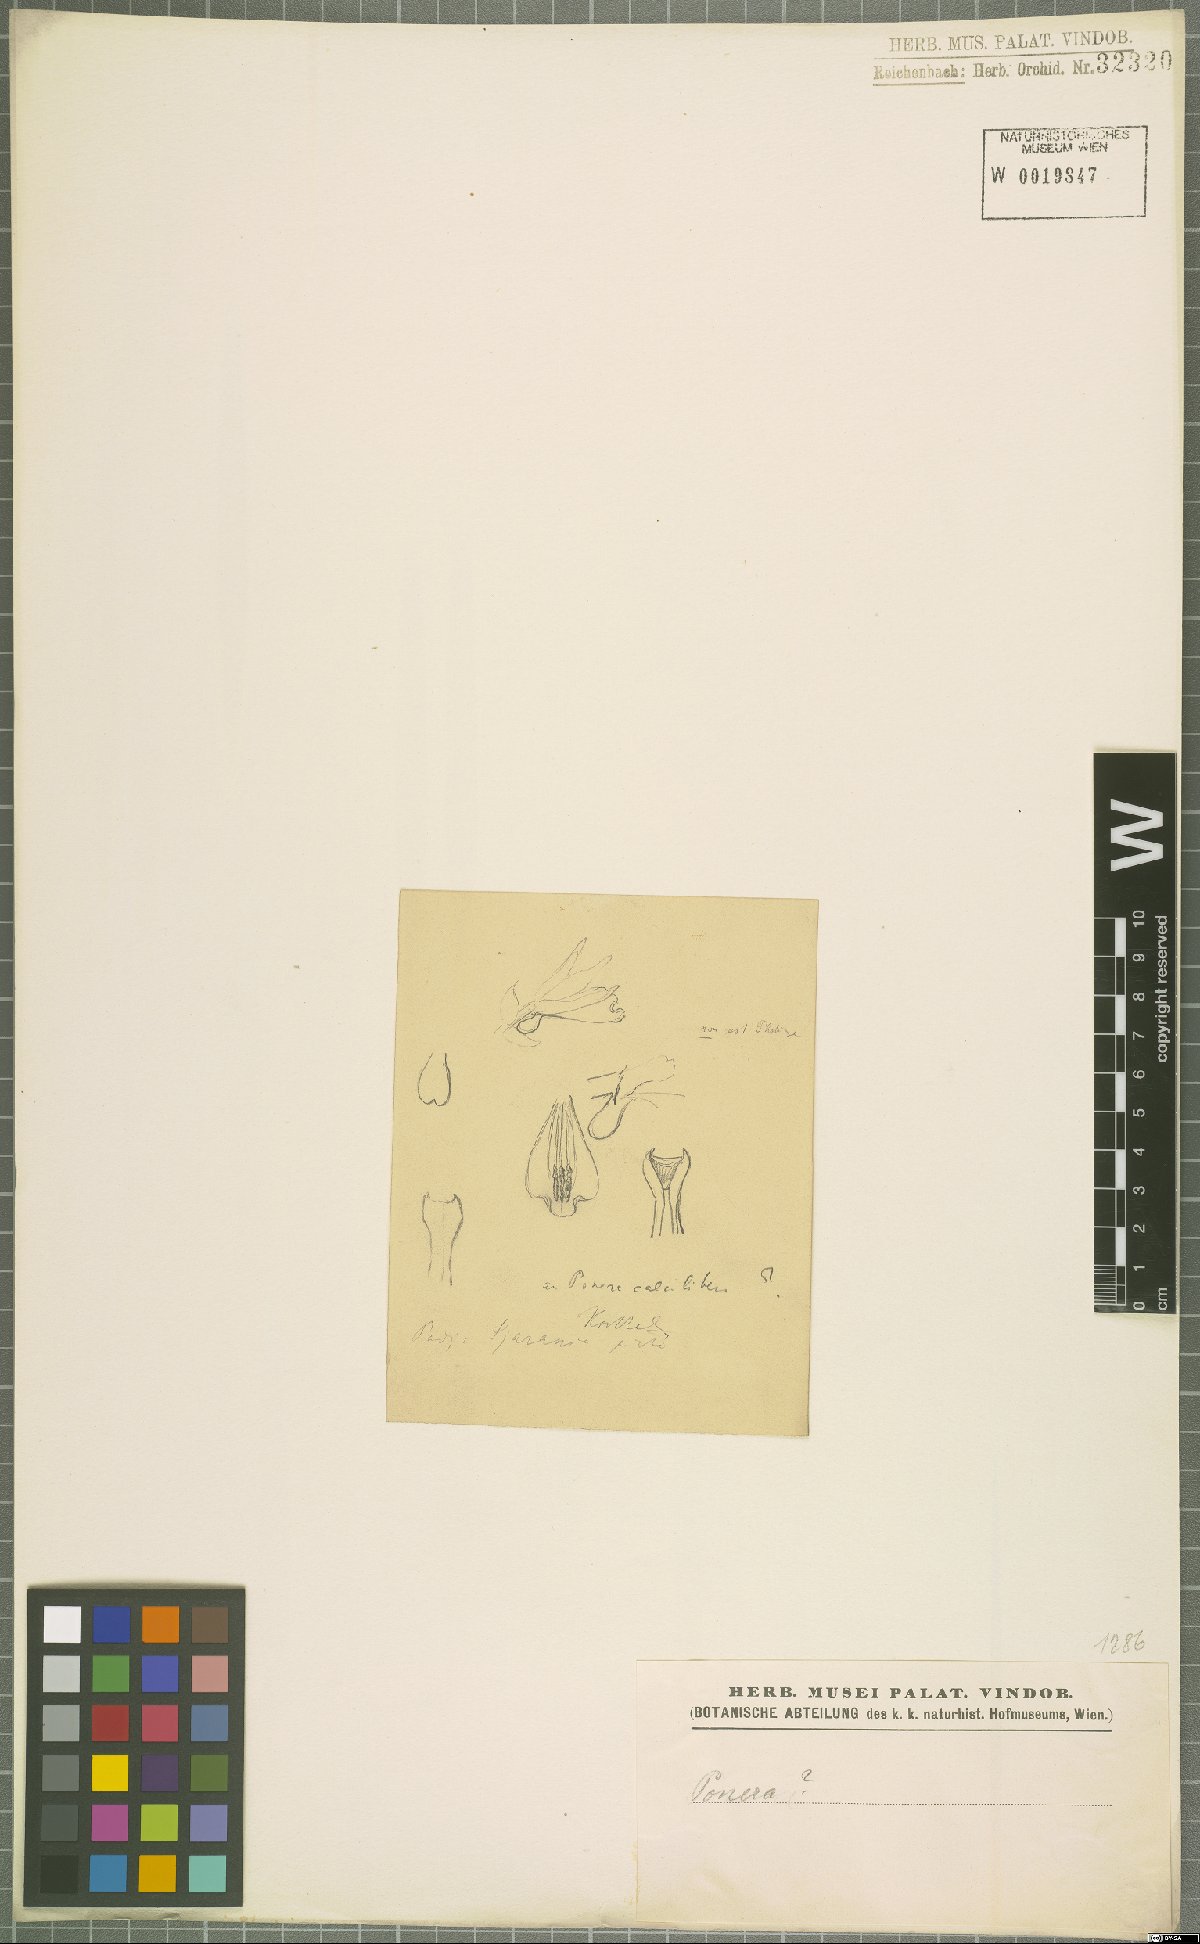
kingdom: Plantae
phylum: Tracheophyta
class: Liliopsida
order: Asparagales
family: Orchidaceae
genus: Ponera
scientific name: Ponera
